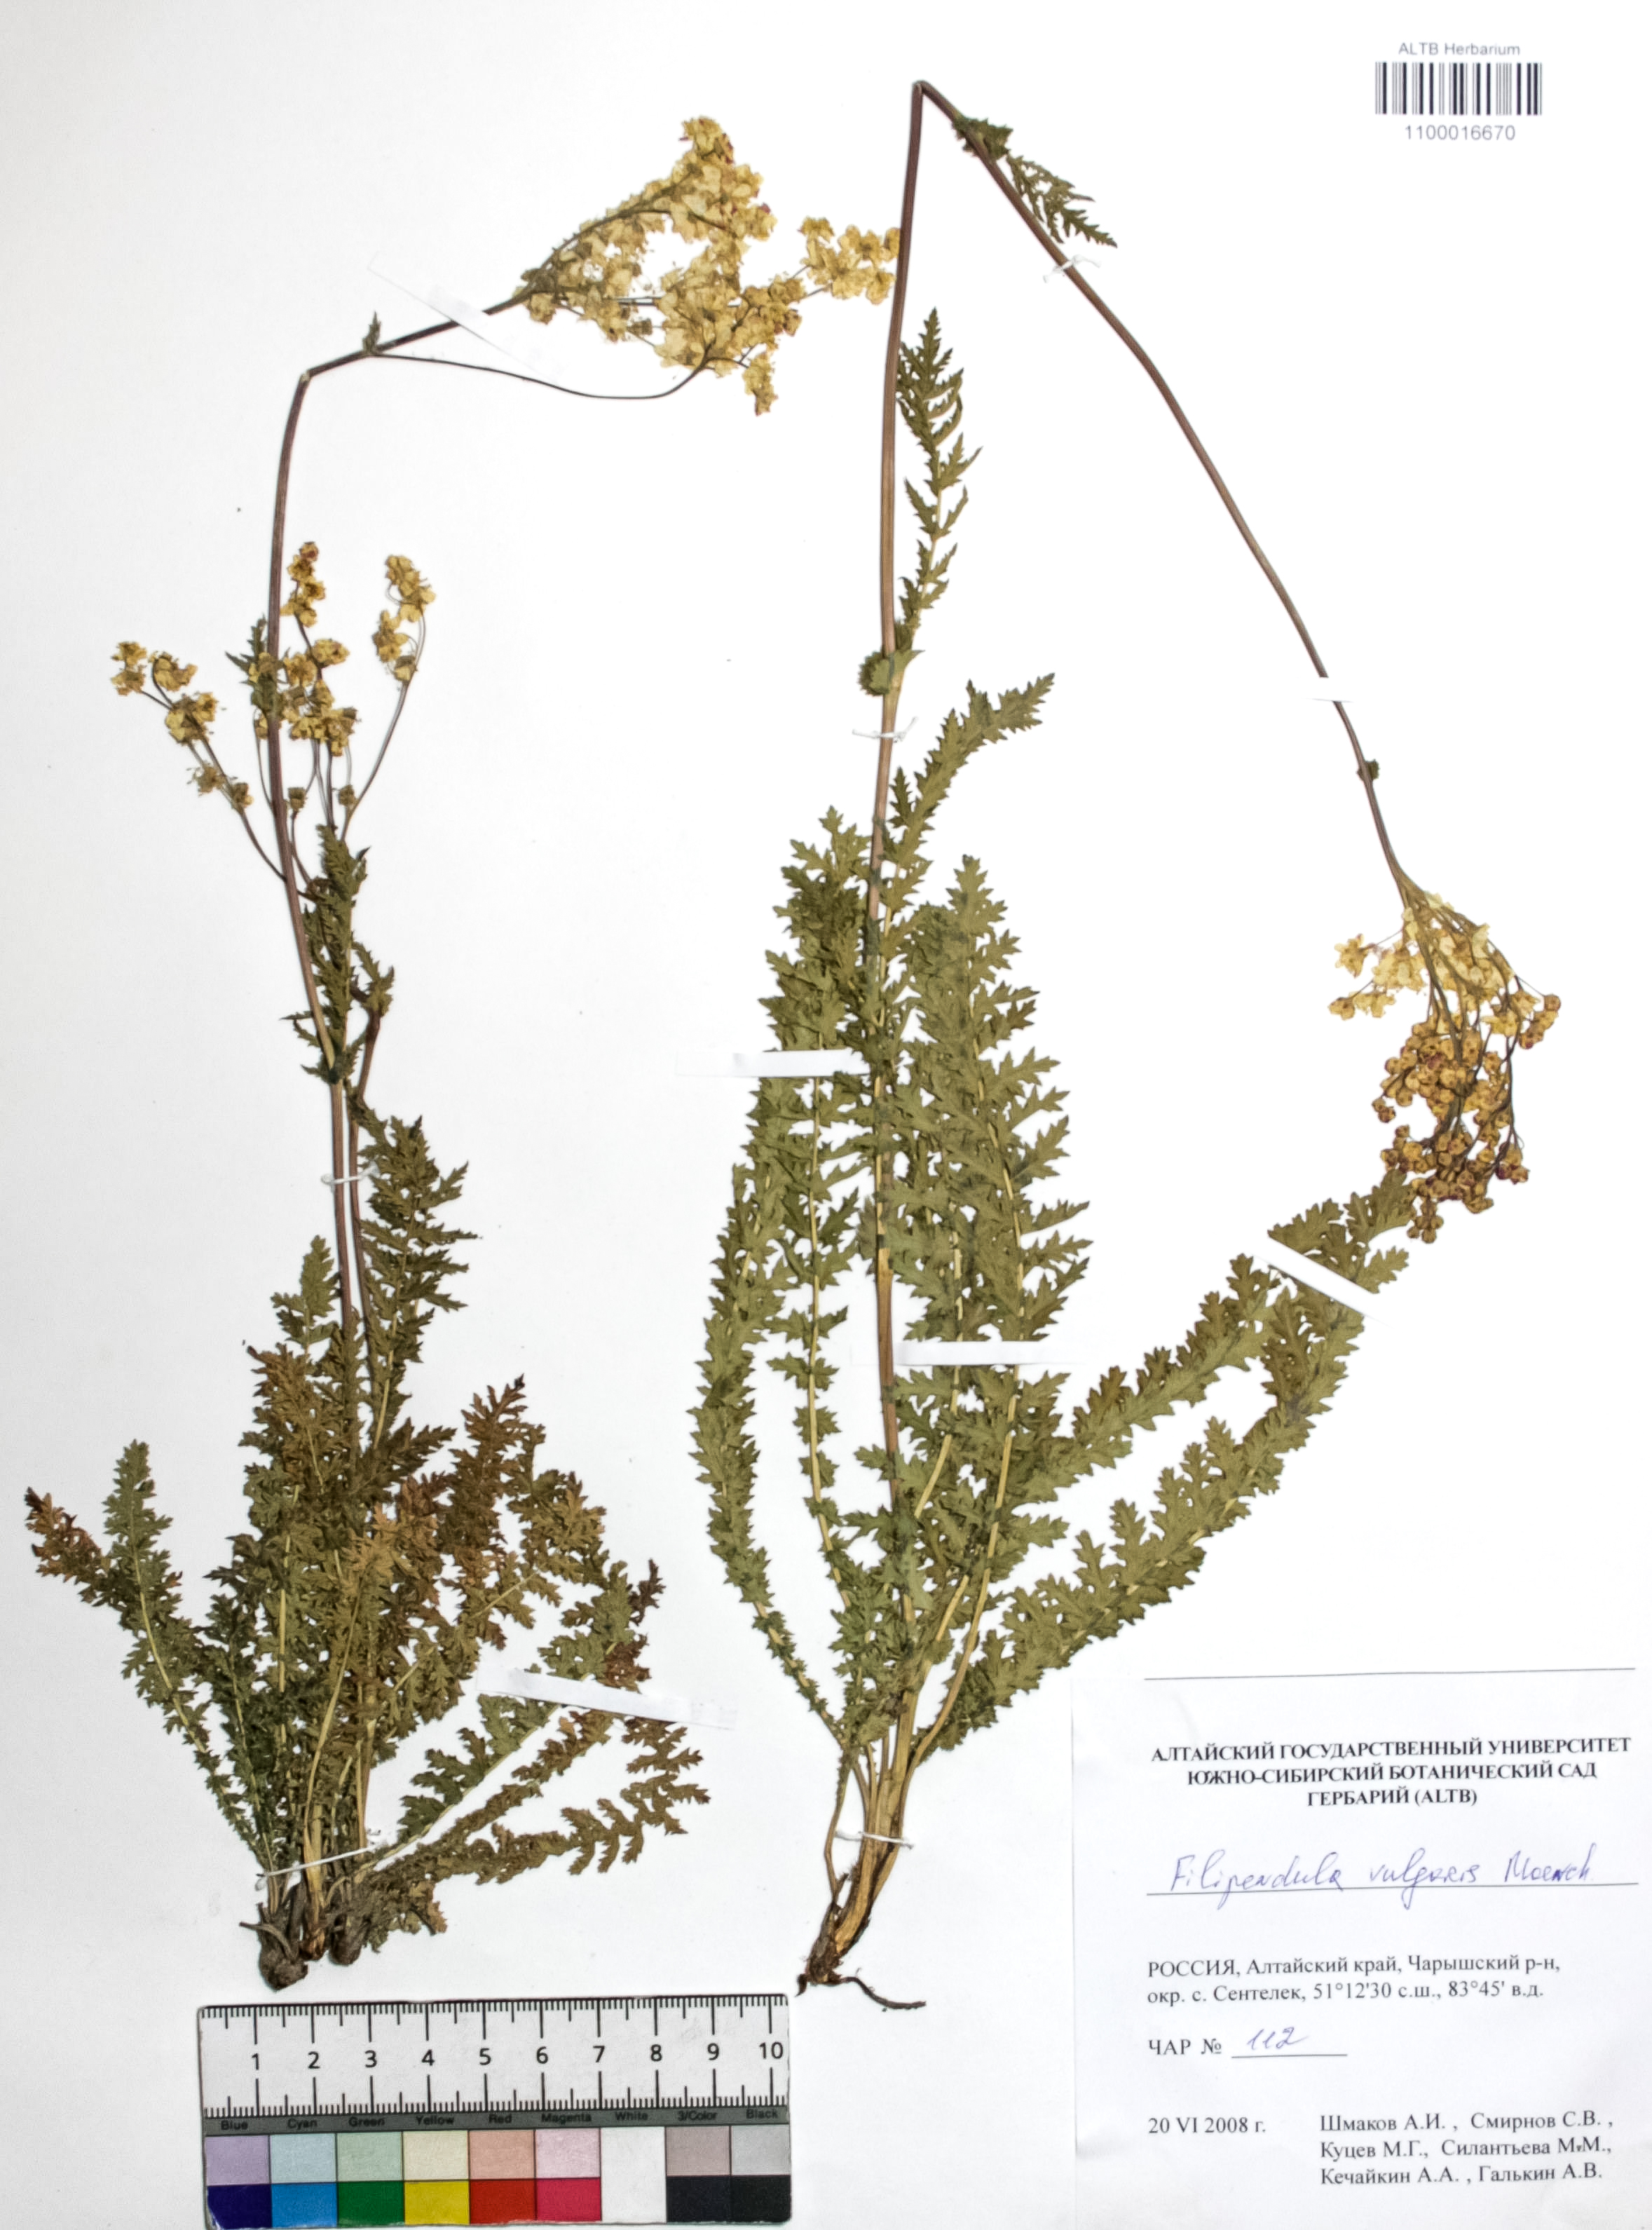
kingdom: Plantae
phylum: Tracheophyta
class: Magnoliopsida
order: Rosales
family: Rosaceae
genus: Filipendula
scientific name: Filipendula vulgaris
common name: Dropwort
